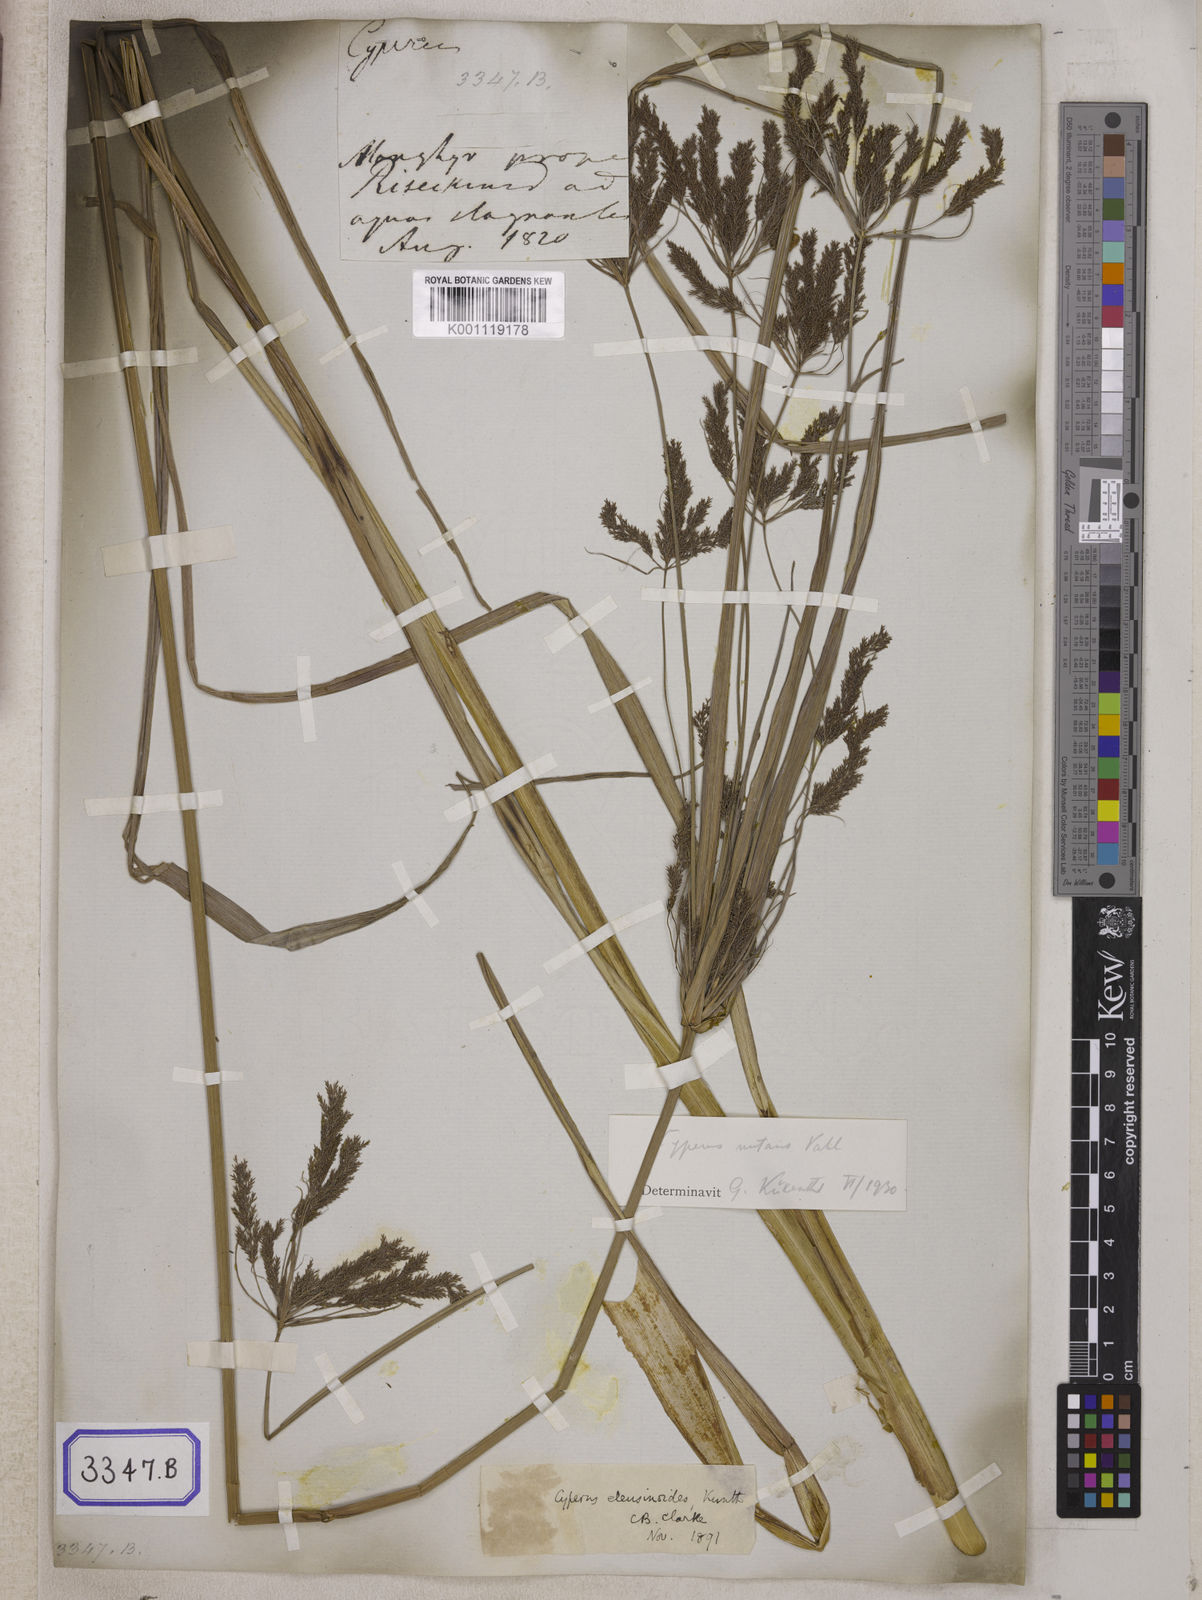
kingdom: Plantae
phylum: Tracheophyta
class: Liliopsida
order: Poales
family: Cyperaceae
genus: Cyperus
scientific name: Cyperus
